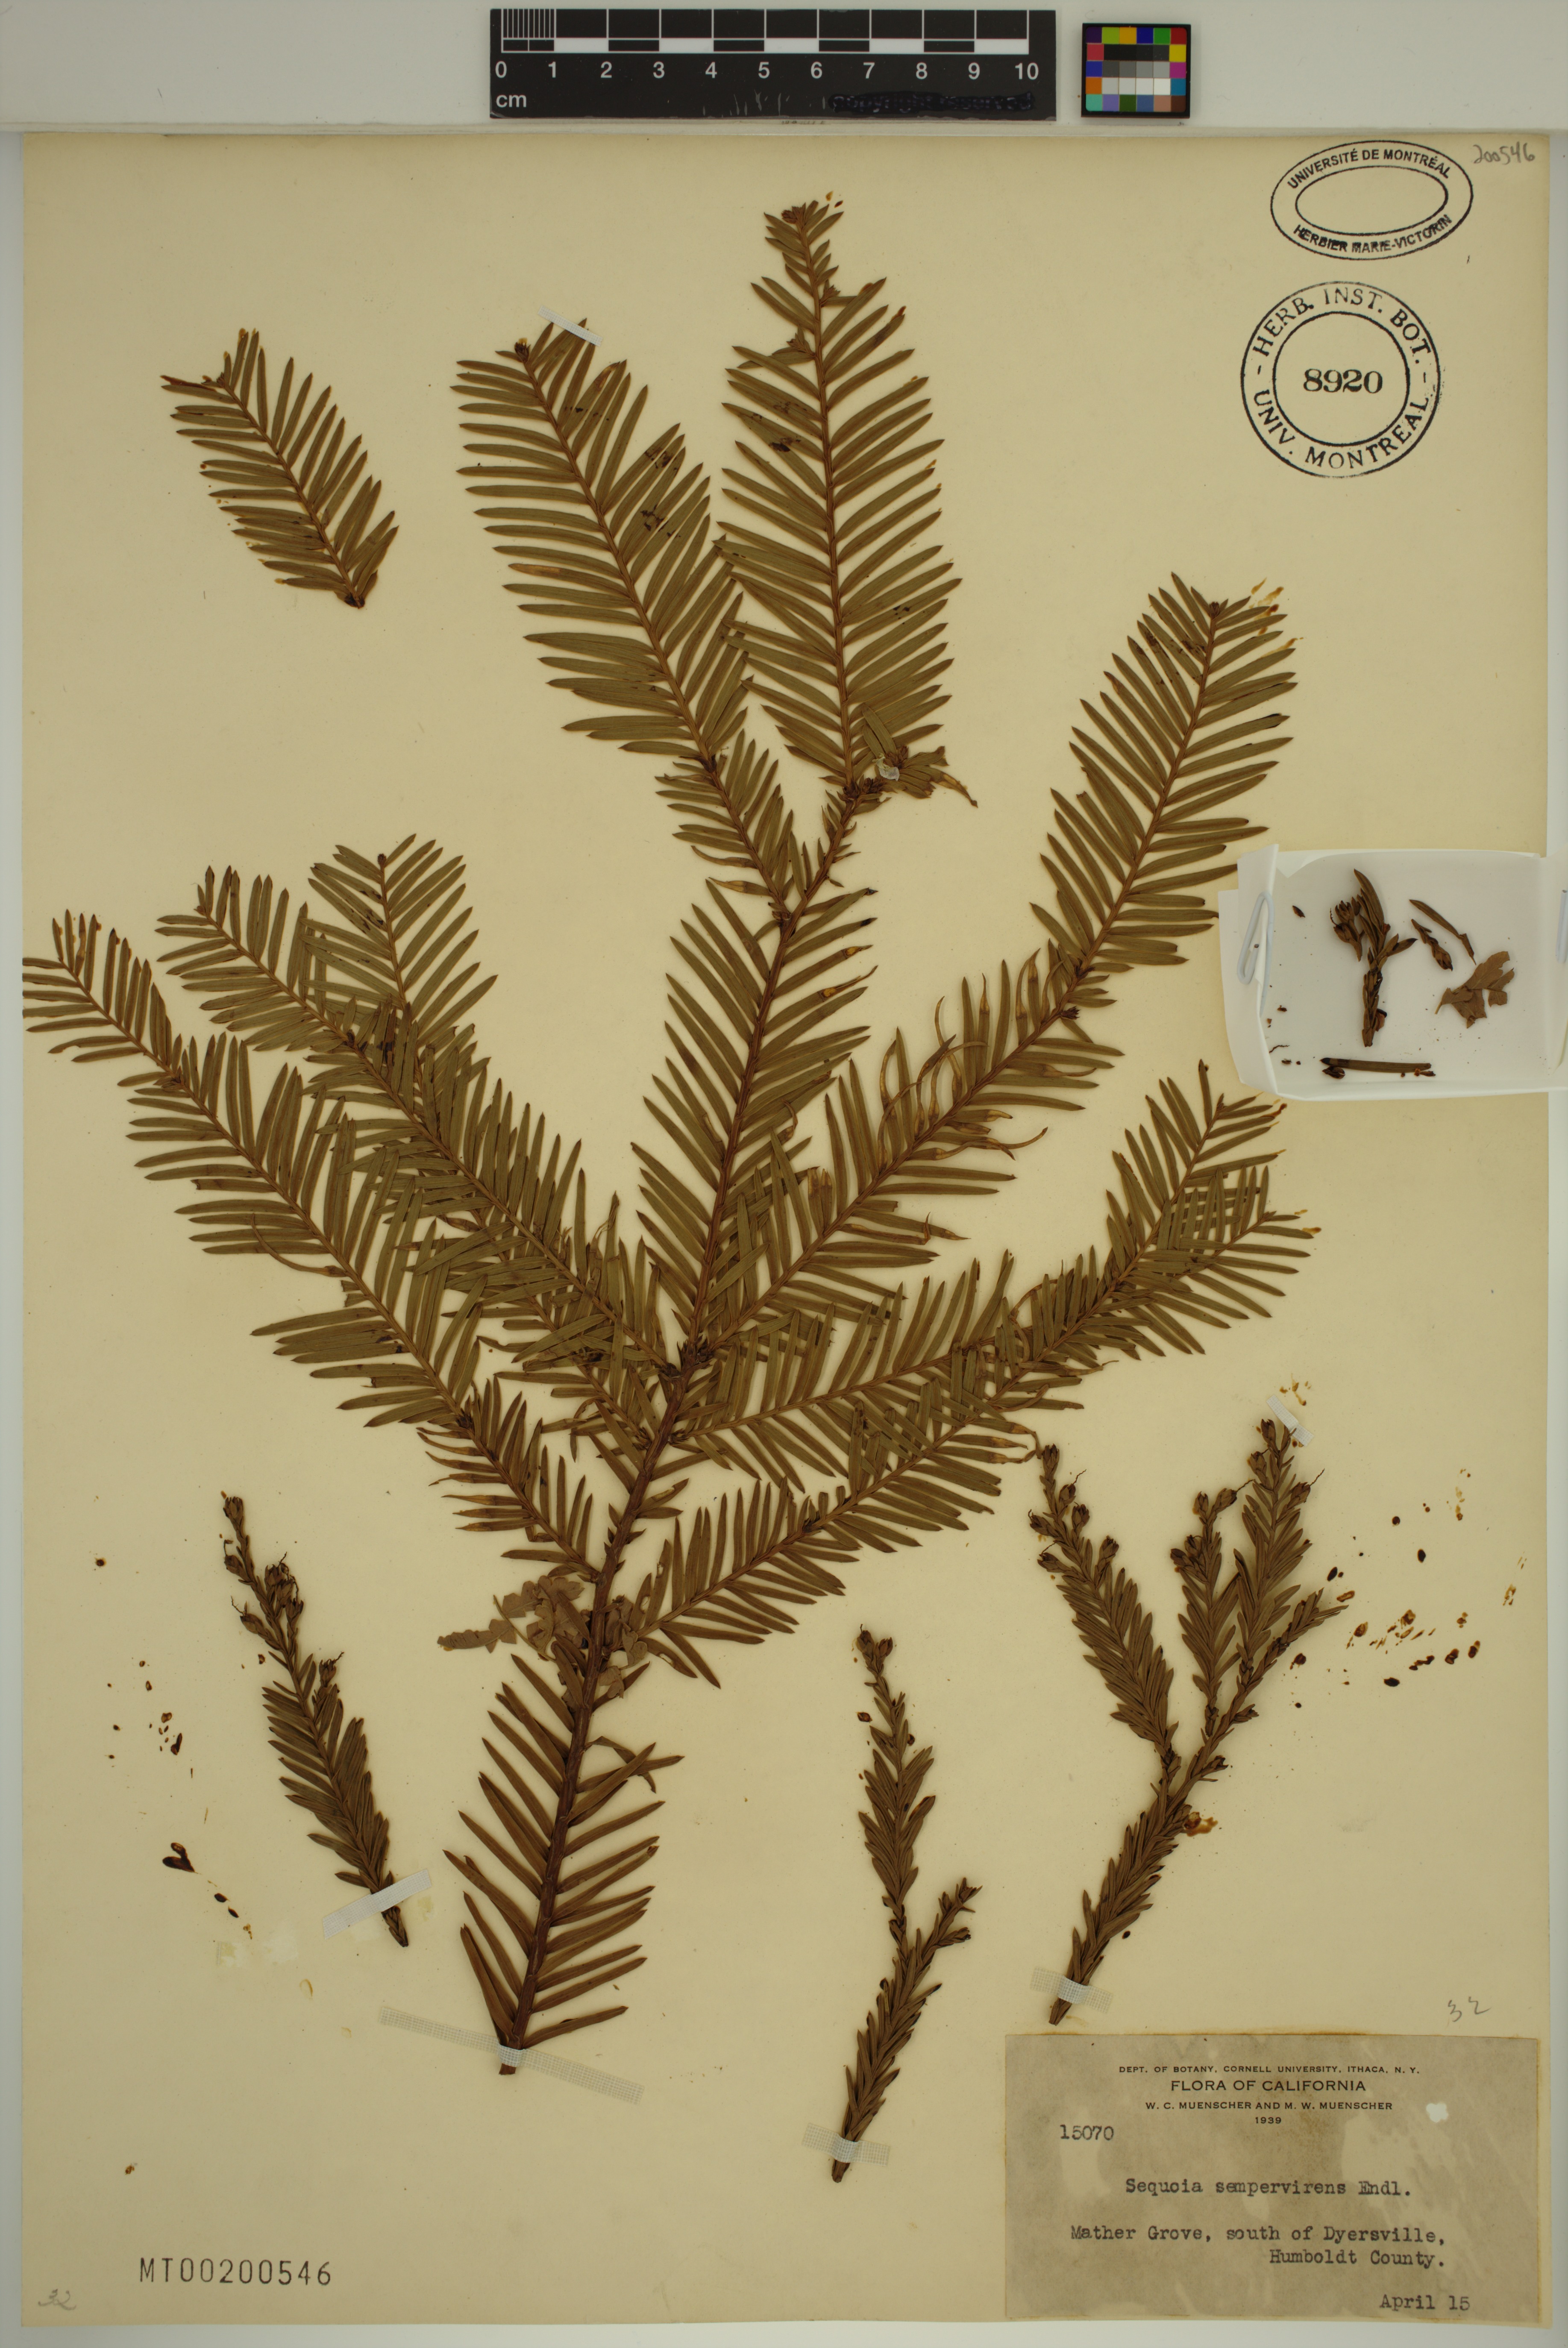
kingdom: Plantae
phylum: Tracheophyta
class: Pinopsida
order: Pinales
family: Cupressaceae
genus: Sequoia
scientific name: Sequoia sempervirens
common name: Coast redwood
